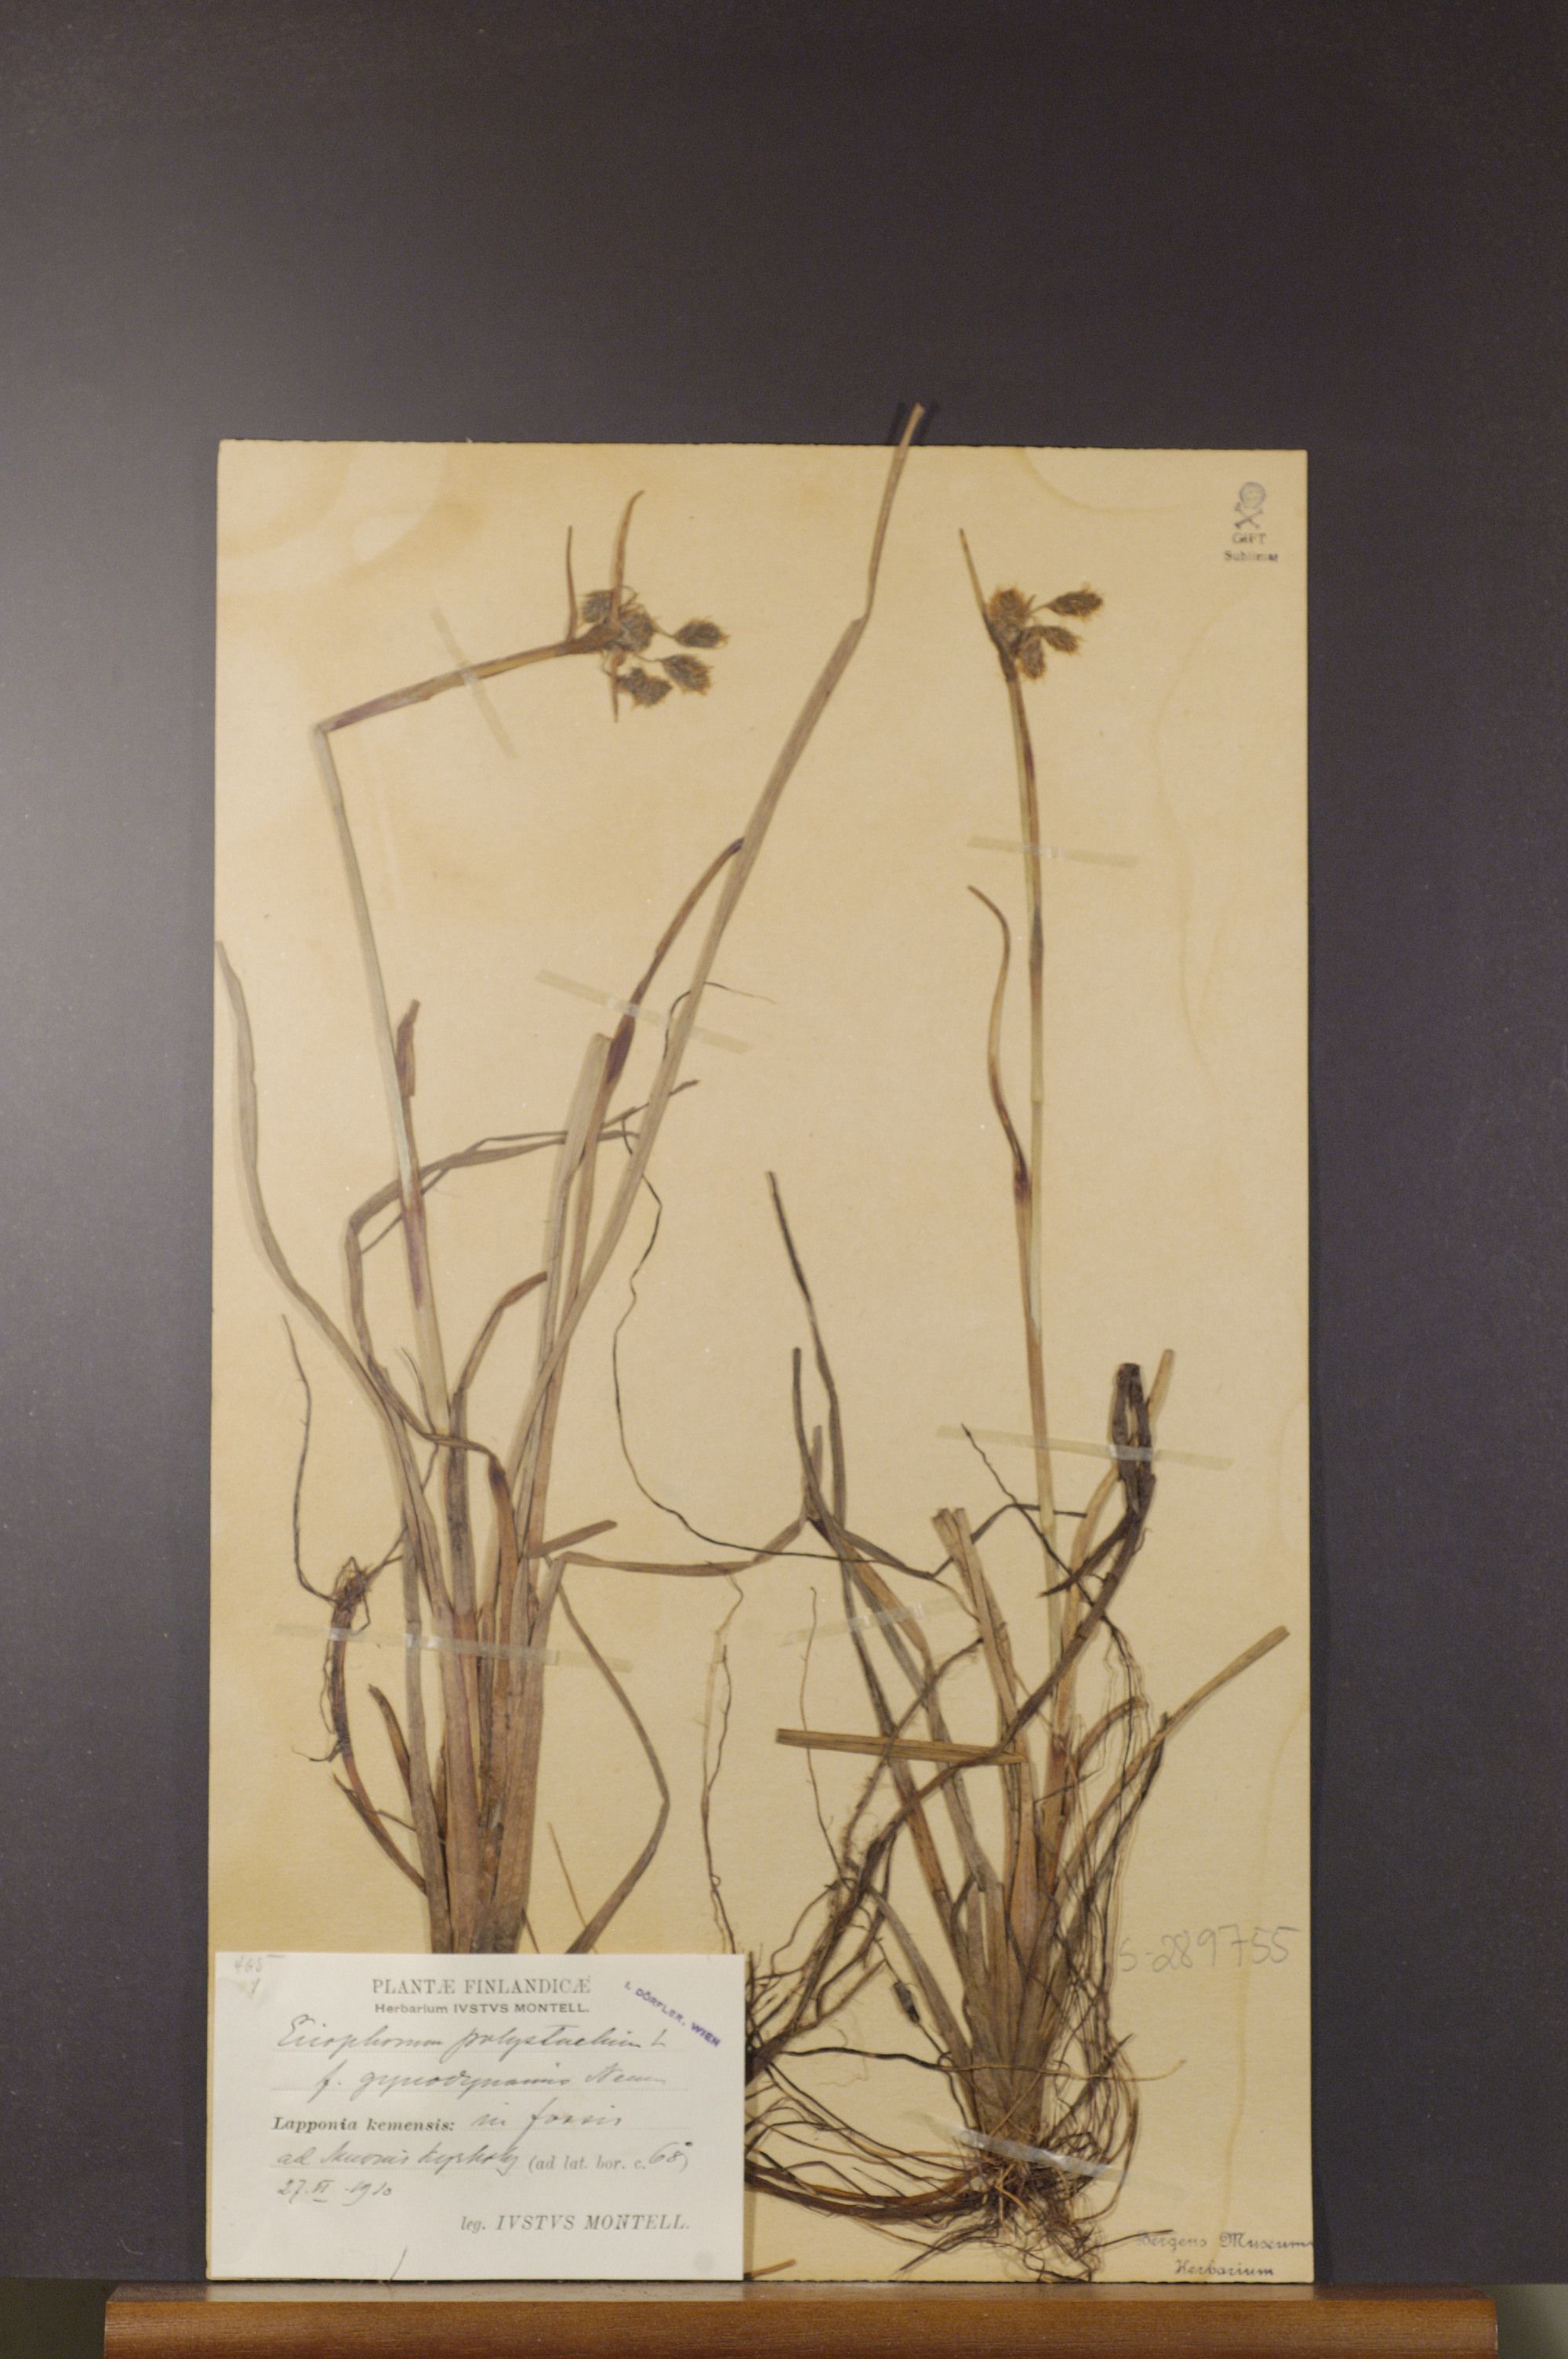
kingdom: Plantae
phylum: Tracheophyta
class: Liliopsida
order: Poales
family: Cyperaceae
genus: Eriophorum
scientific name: Eriophorum angustifolium
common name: Common cottongrass
